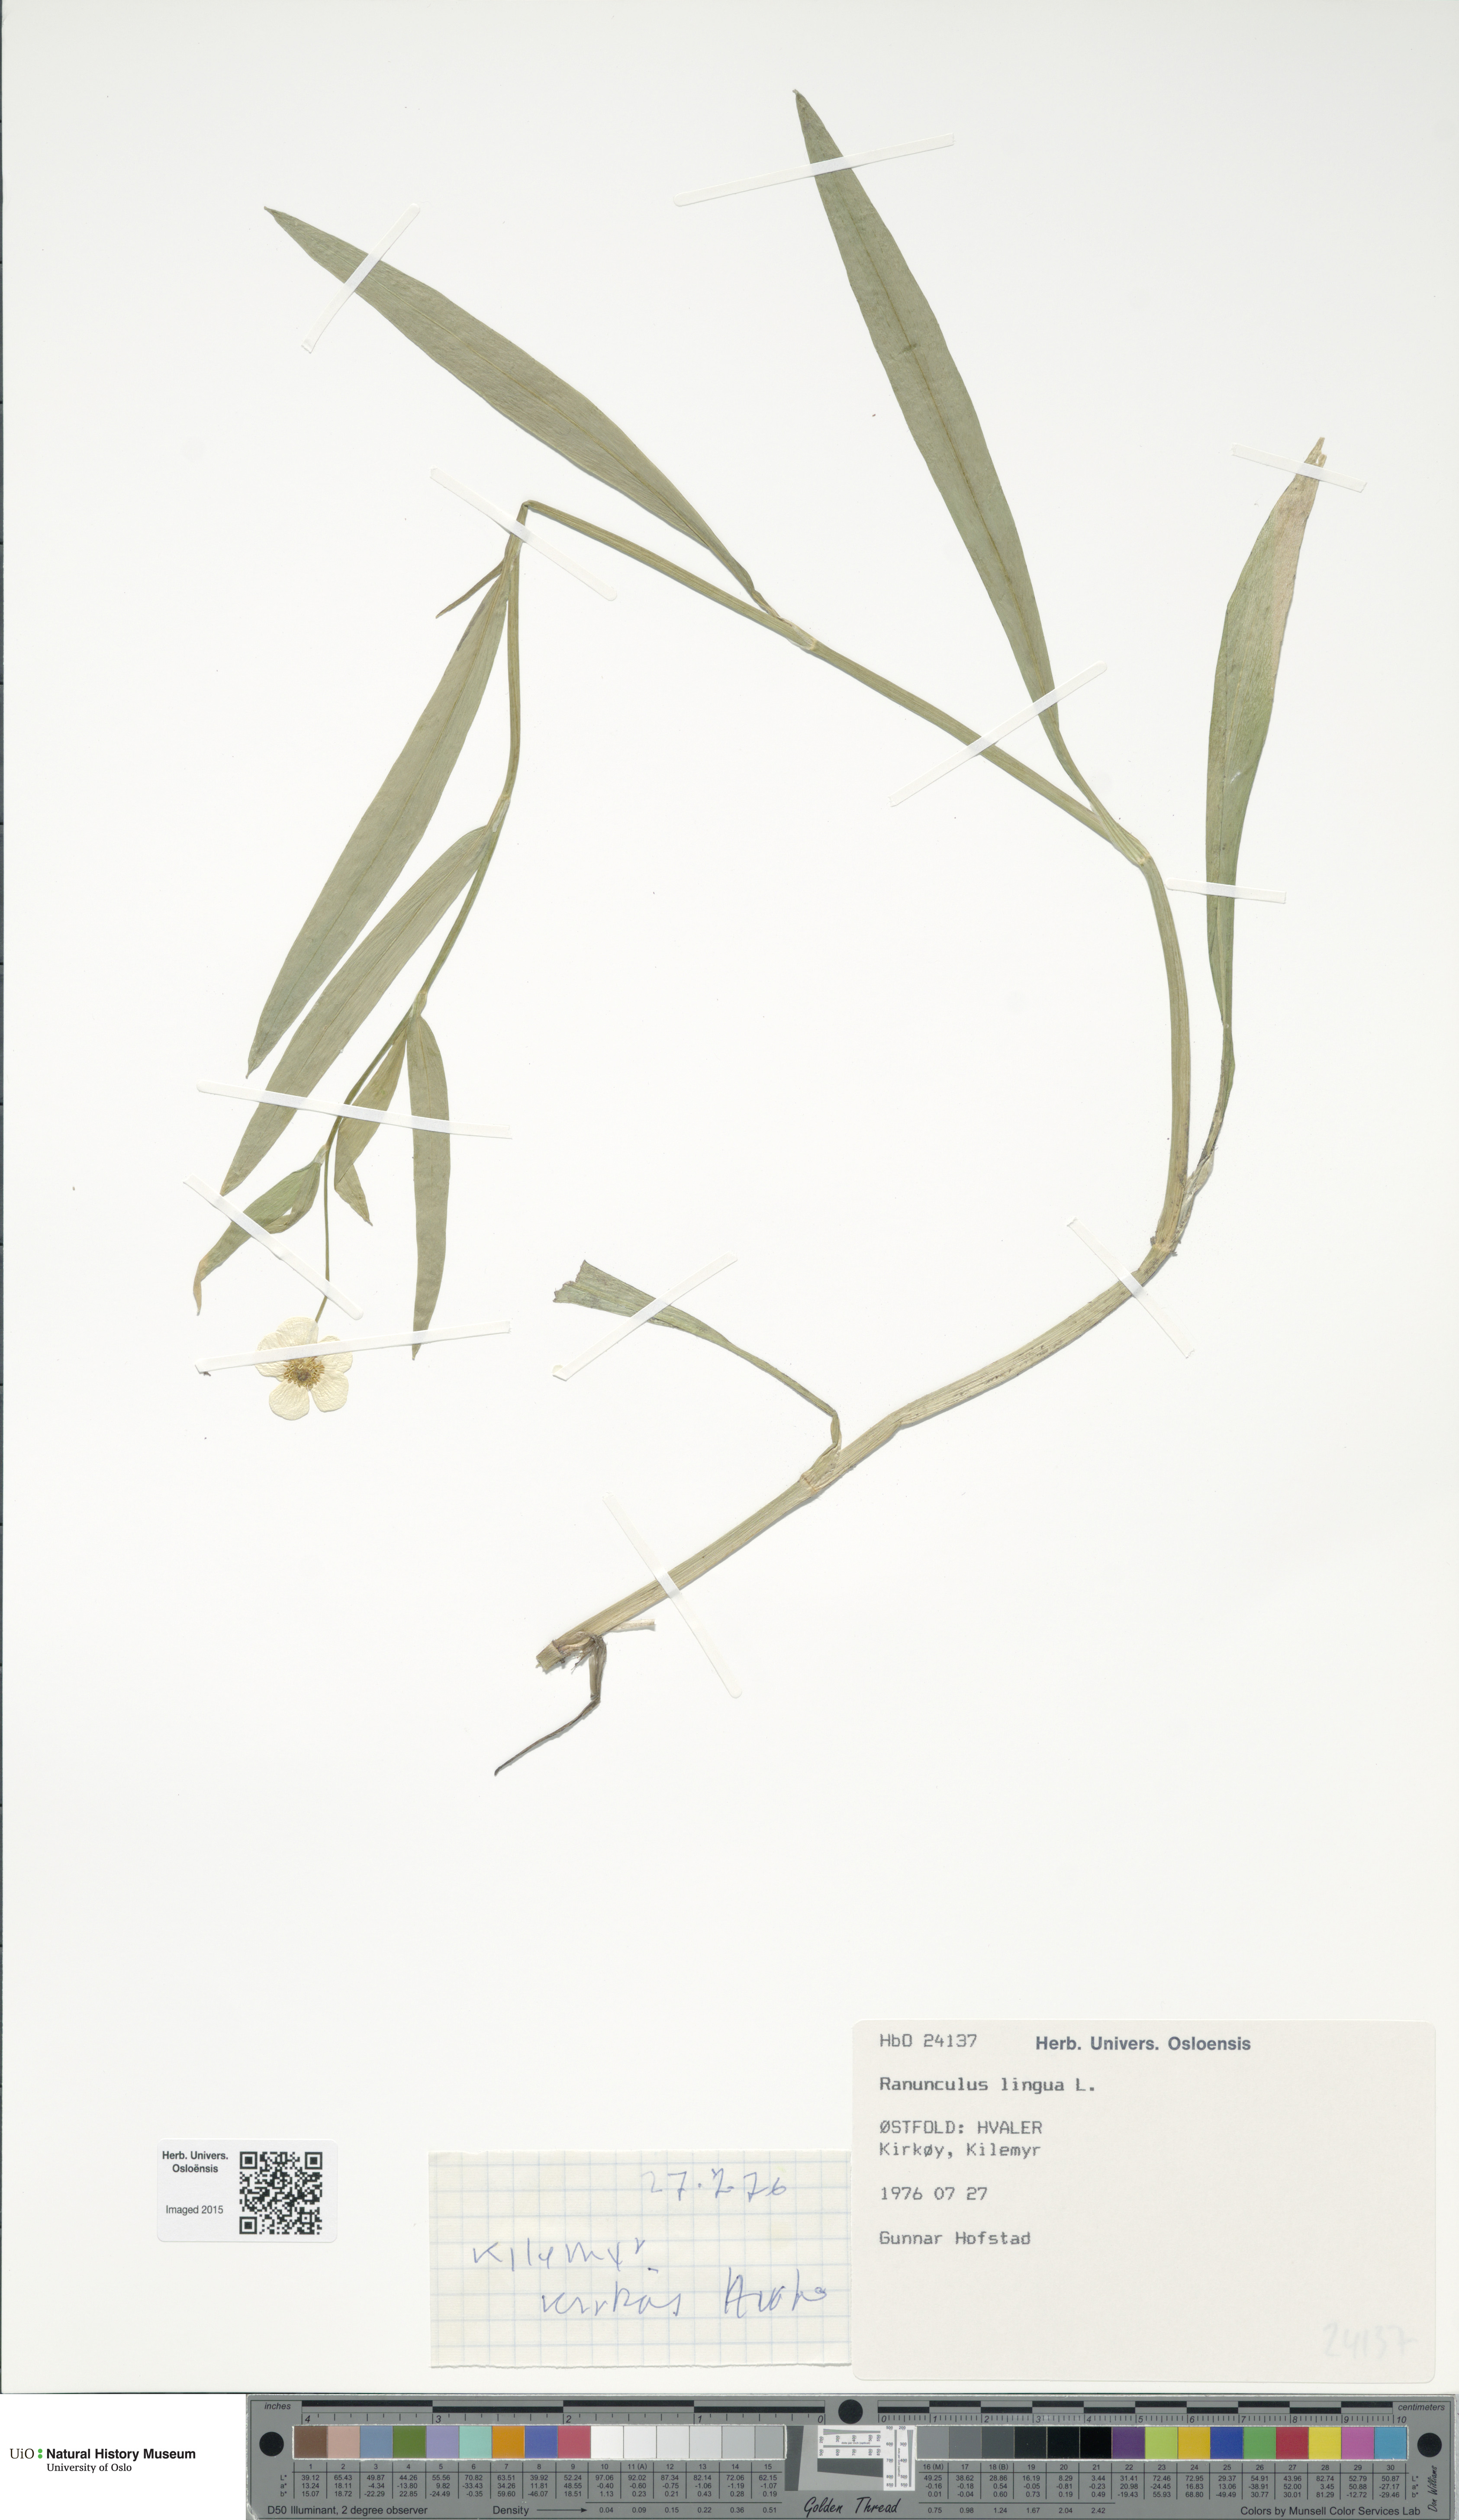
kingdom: Plantae
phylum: Tracheophyta
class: Magnoliopsida
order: Ranunculales
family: Ranunculaceae
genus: Ranunculus
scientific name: Ranunculus lingua
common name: Greater spearwort
